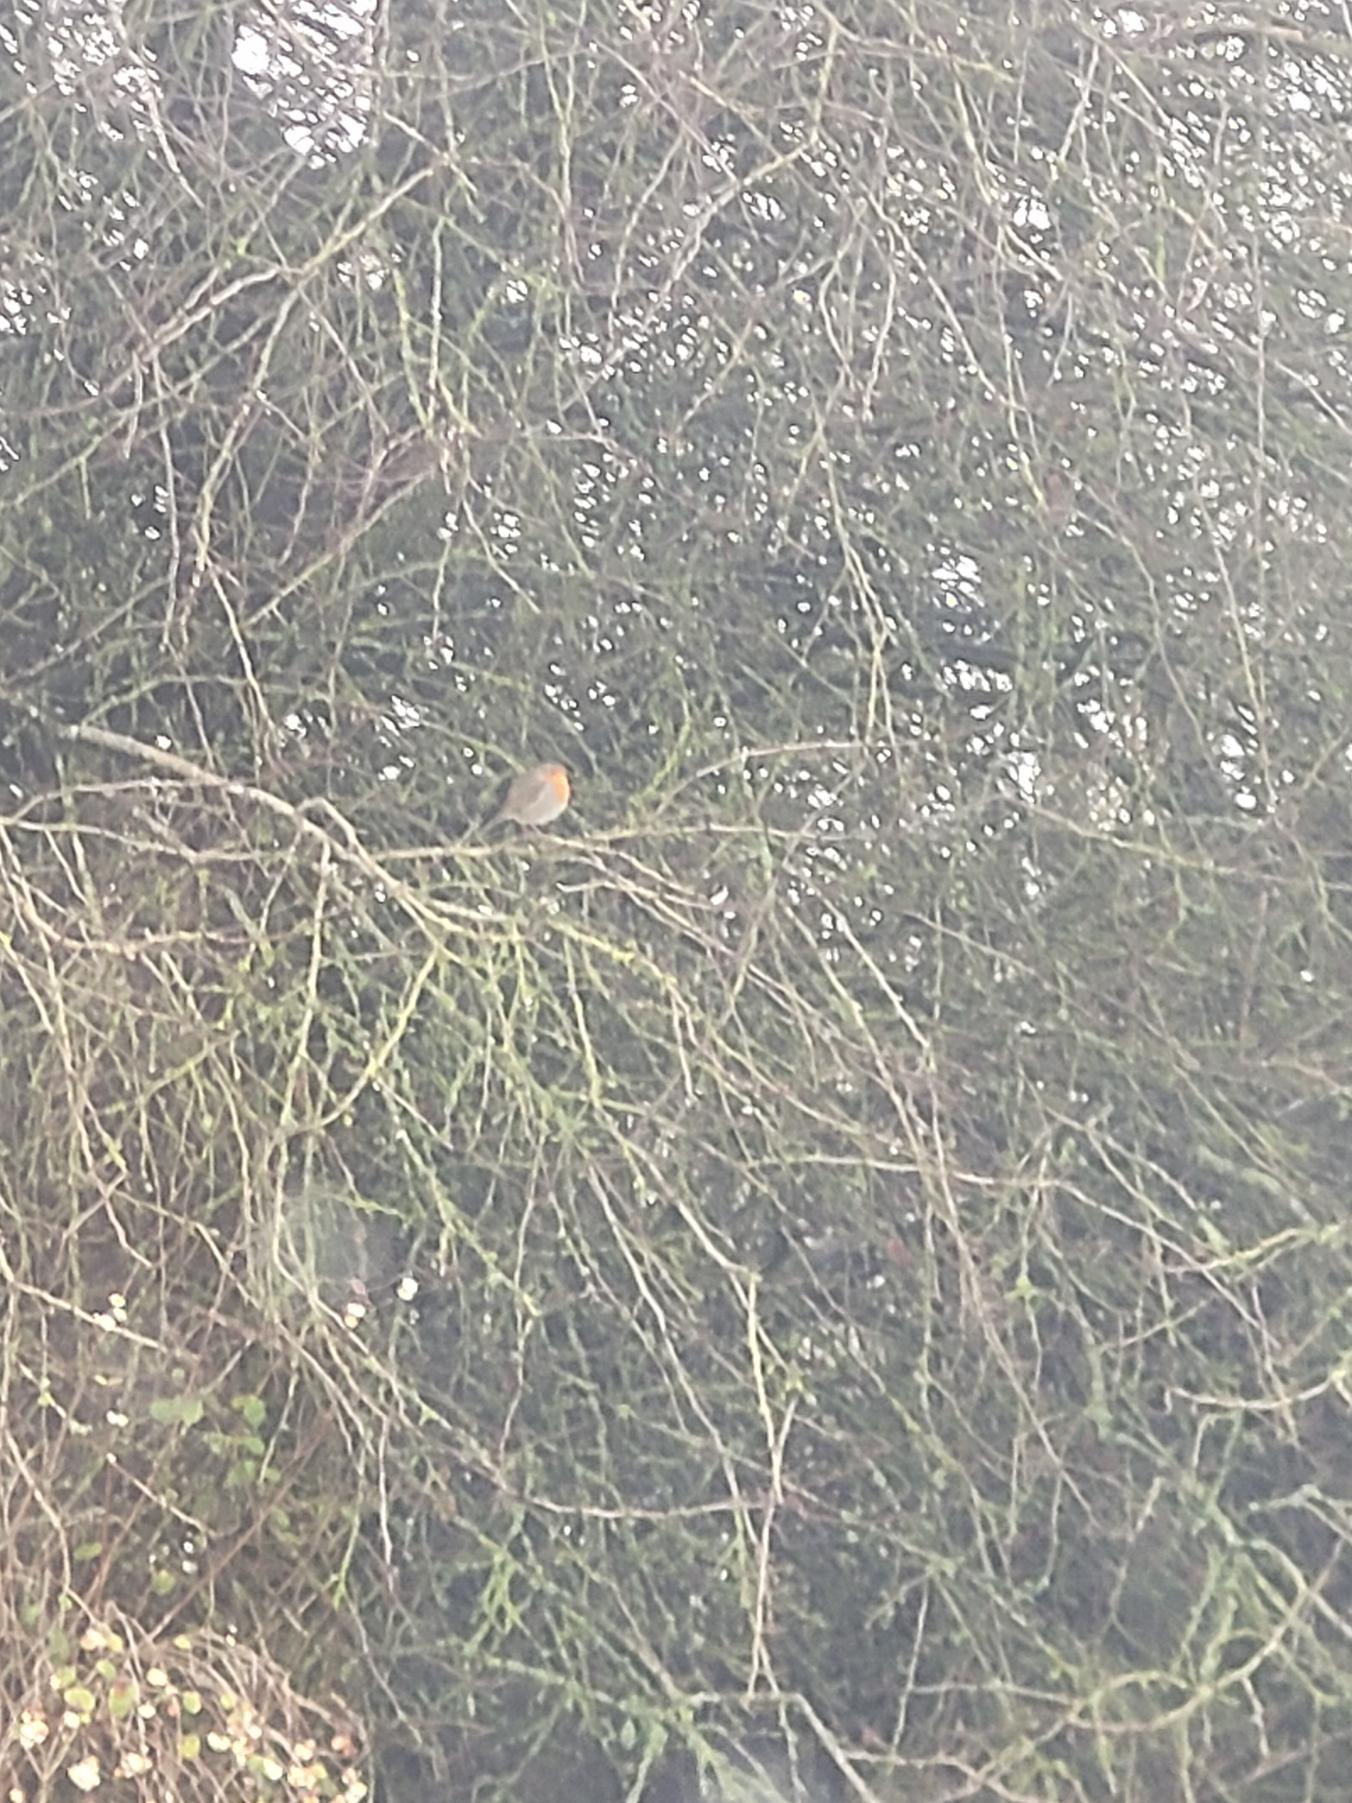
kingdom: Animalia
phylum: Chordata
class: Aves
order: Passeriformes
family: Muscicapidae
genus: Erithacus
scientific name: Erithacus rubecula
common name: Rødhals/rødkælk
